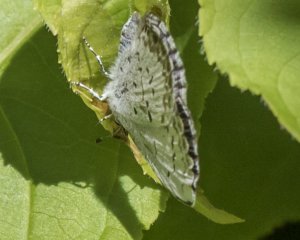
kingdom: Animalia
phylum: Arthropoda
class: Insecta
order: Lepidoptera
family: Lycaenidae
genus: Celastrina
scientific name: Celastrina serotina
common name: Cherry Gall Azure
